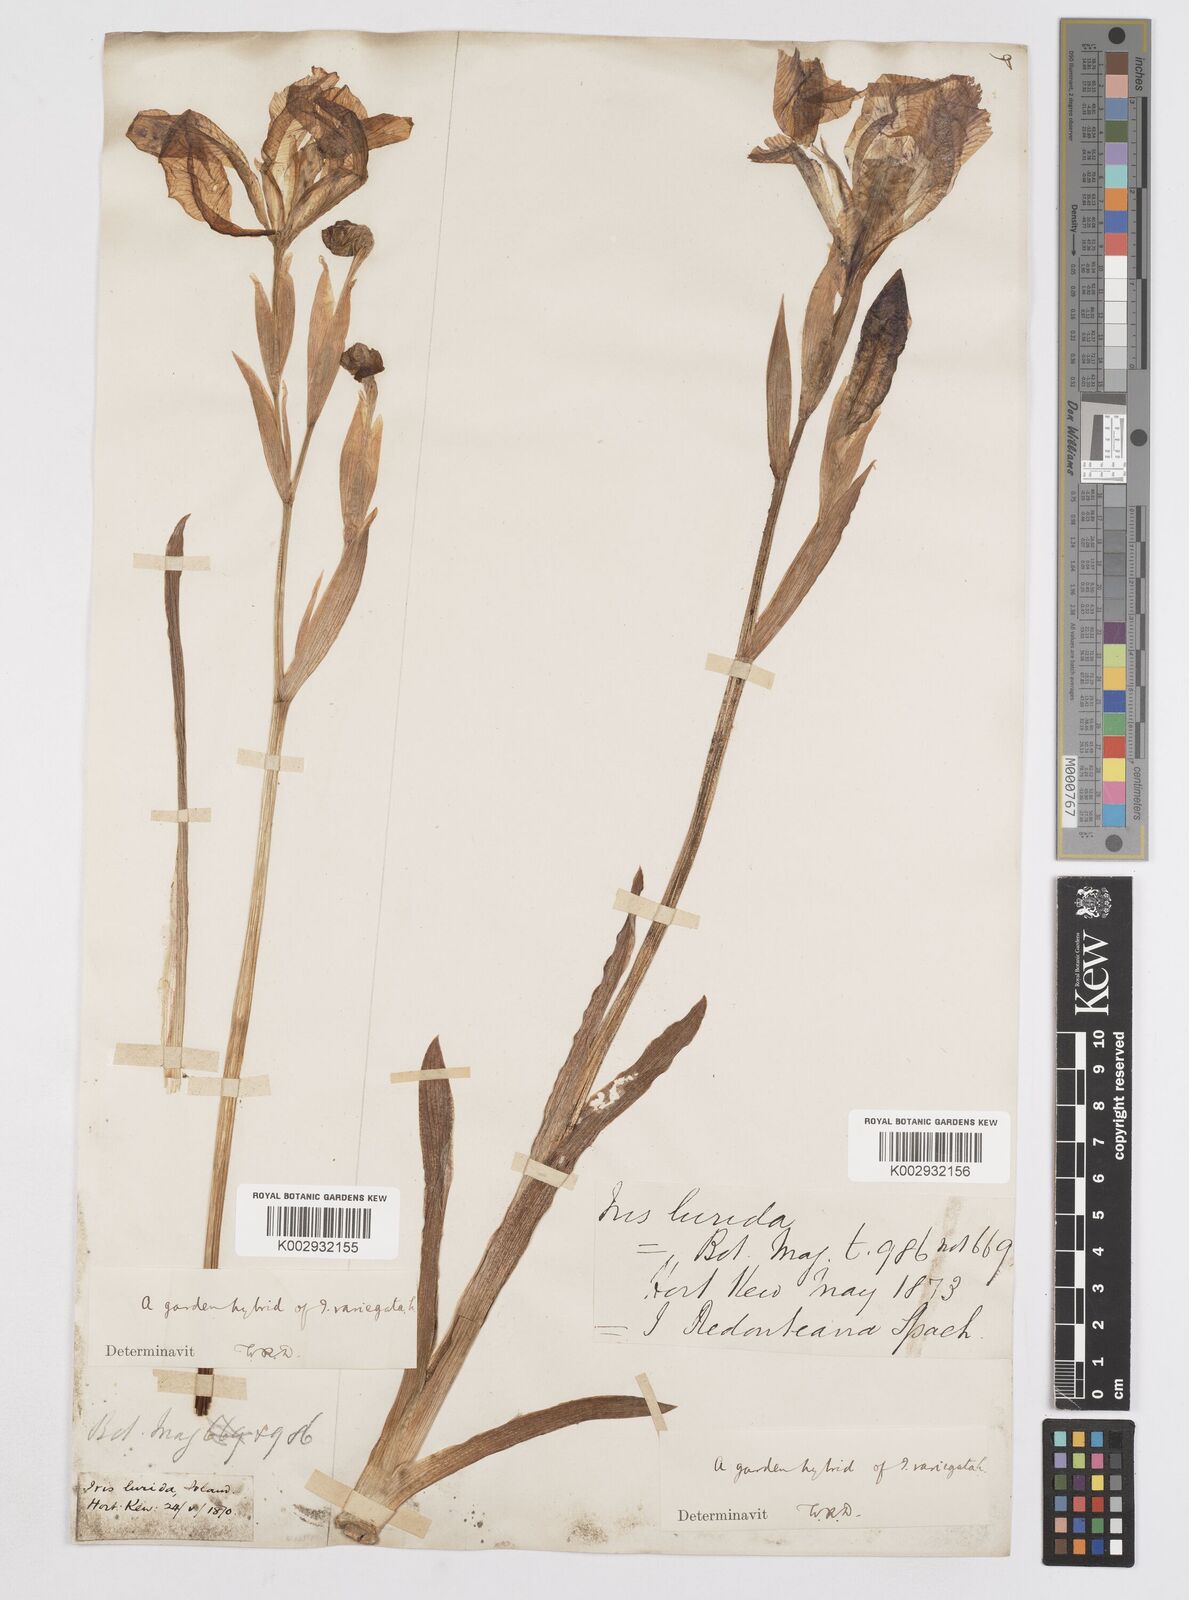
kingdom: Plantae
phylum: Tracheophyta
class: Liliopsida
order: Asparagales
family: Iridaceae
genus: Iris
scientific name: Iris sari
